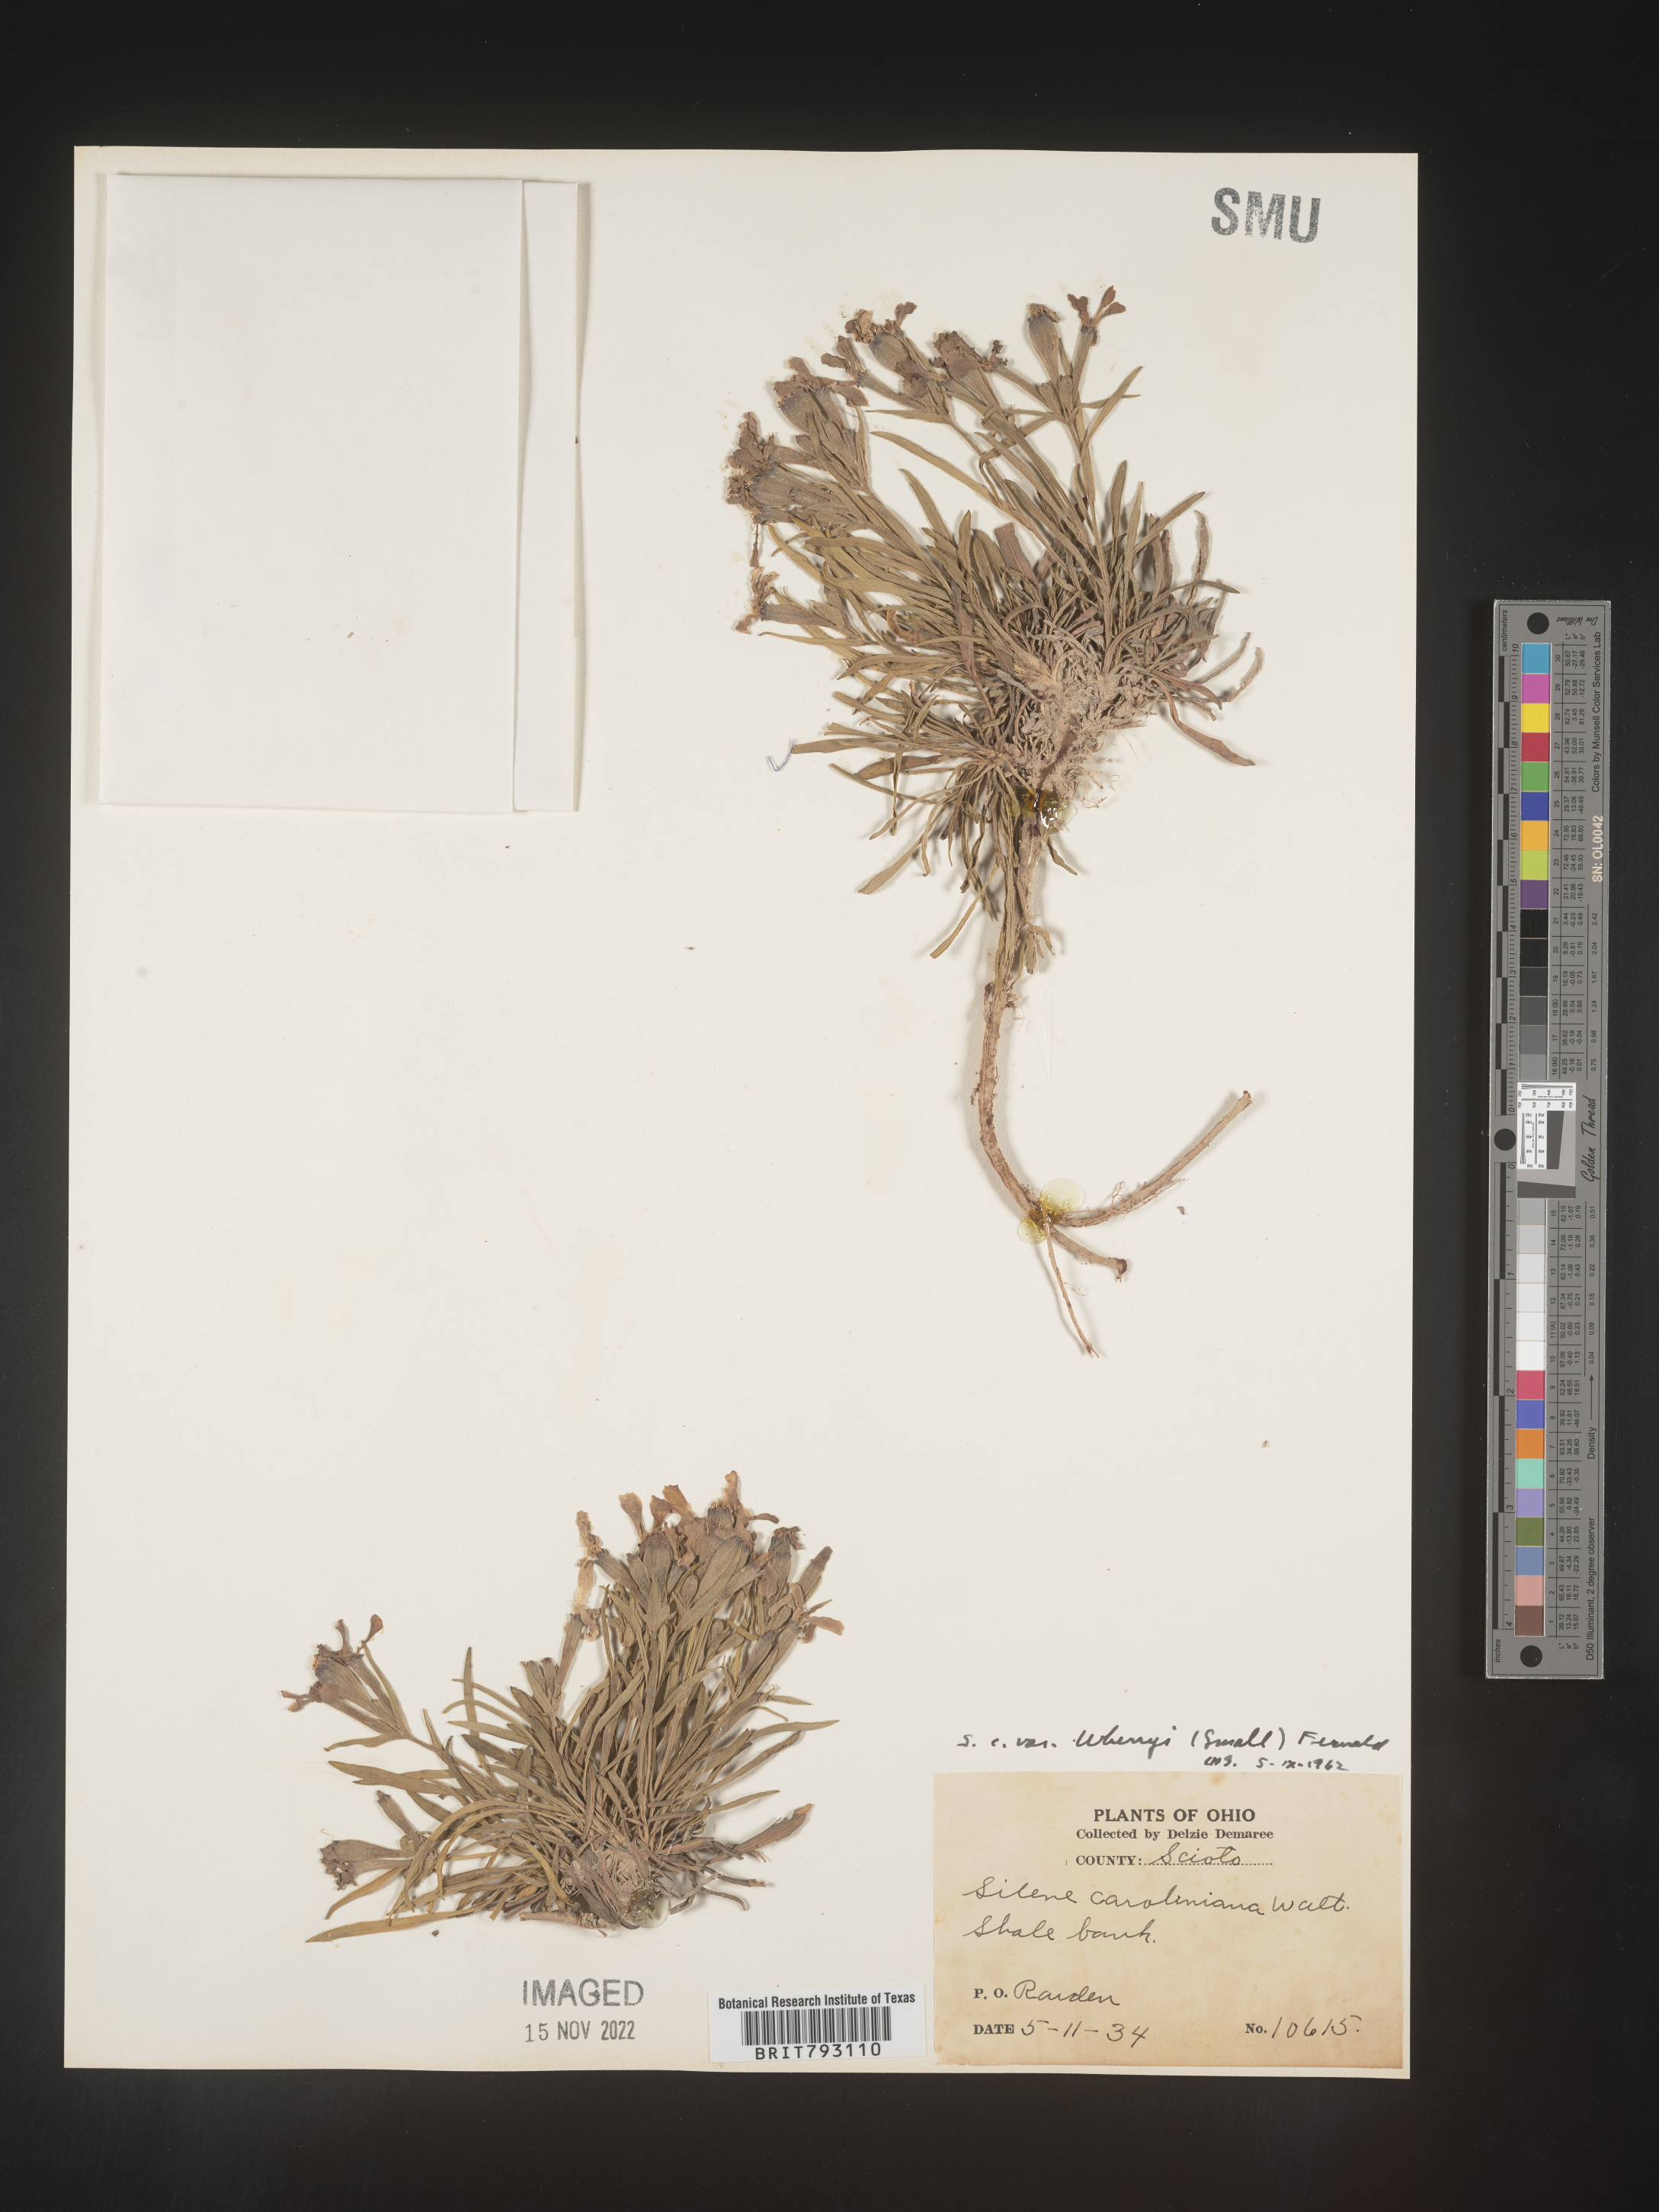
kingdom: Plantae
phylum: Tracheophyta
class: Magnoliopsida
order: Caryophyllales
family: Caryophyllaceae
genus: Silene
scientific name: Silene caroliniana
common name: Sticky catchfly
